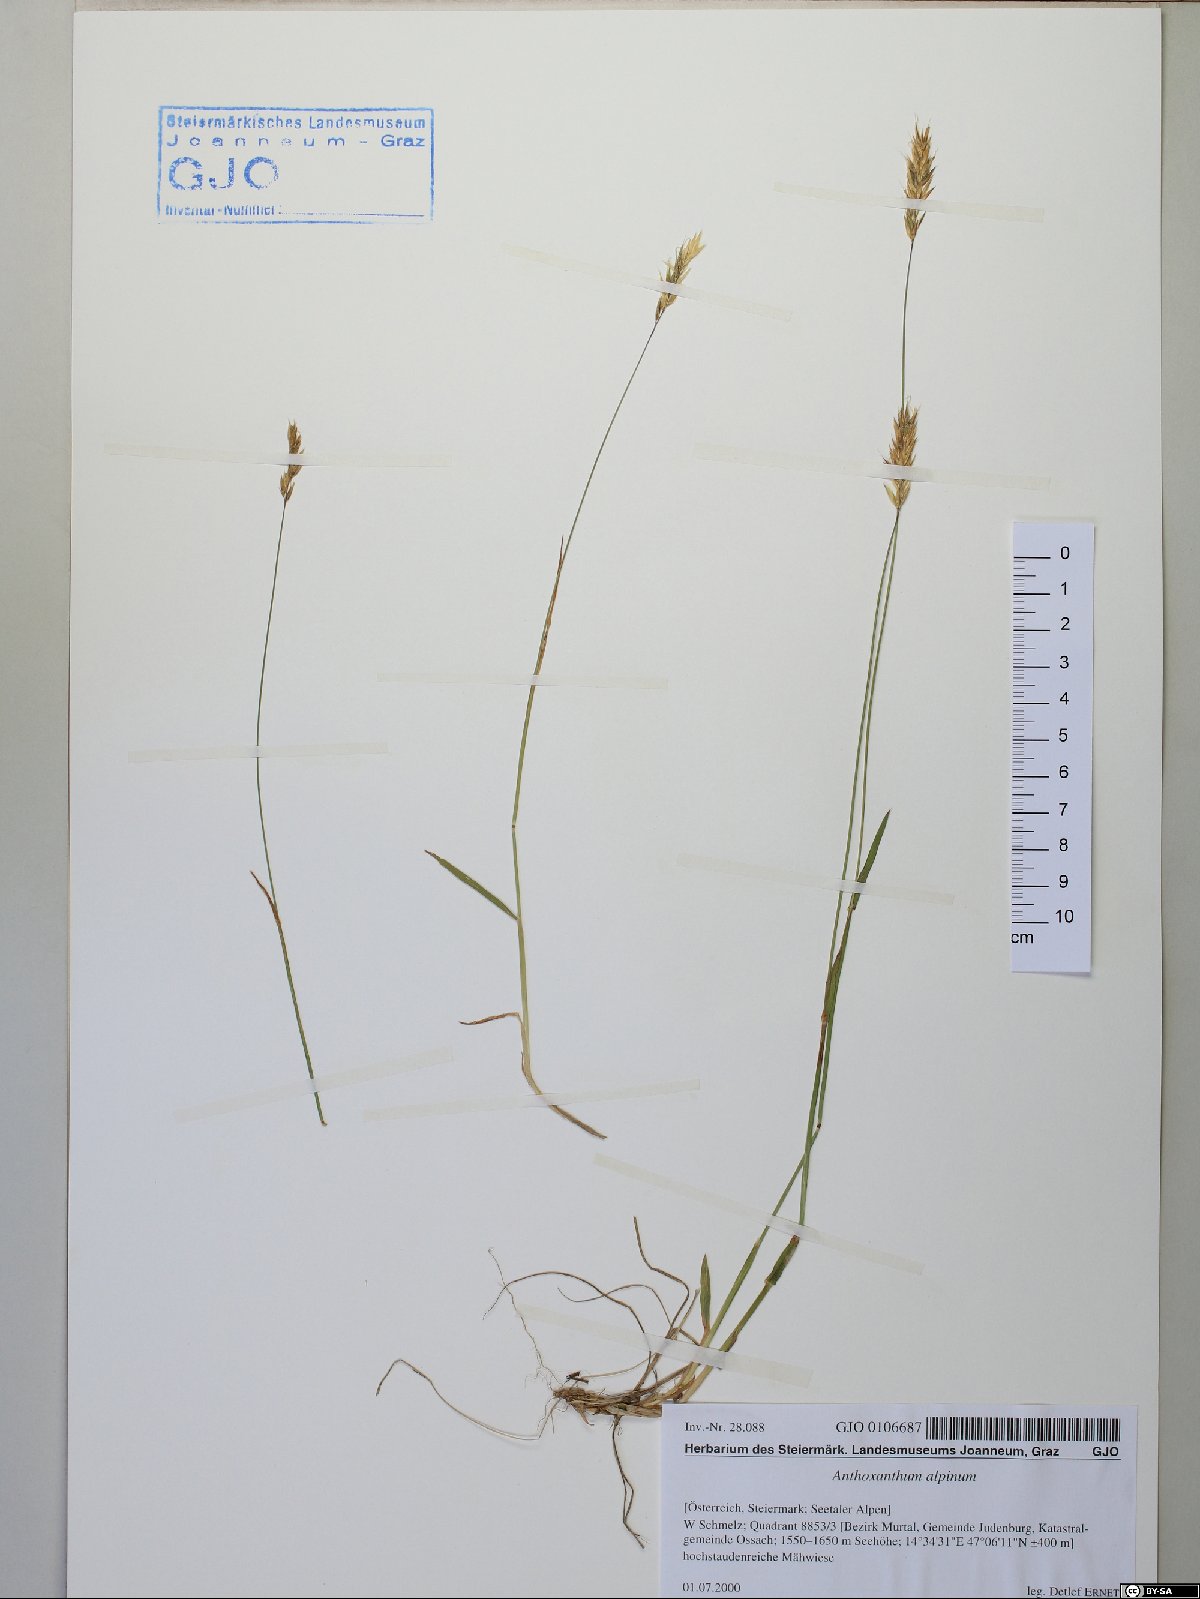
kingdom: Plantae
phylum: Tracheophyta
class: Liliopsida
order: Poales
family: Poaceae
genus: Anthoxanthum
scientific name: Anthoxanthum nipponicum
